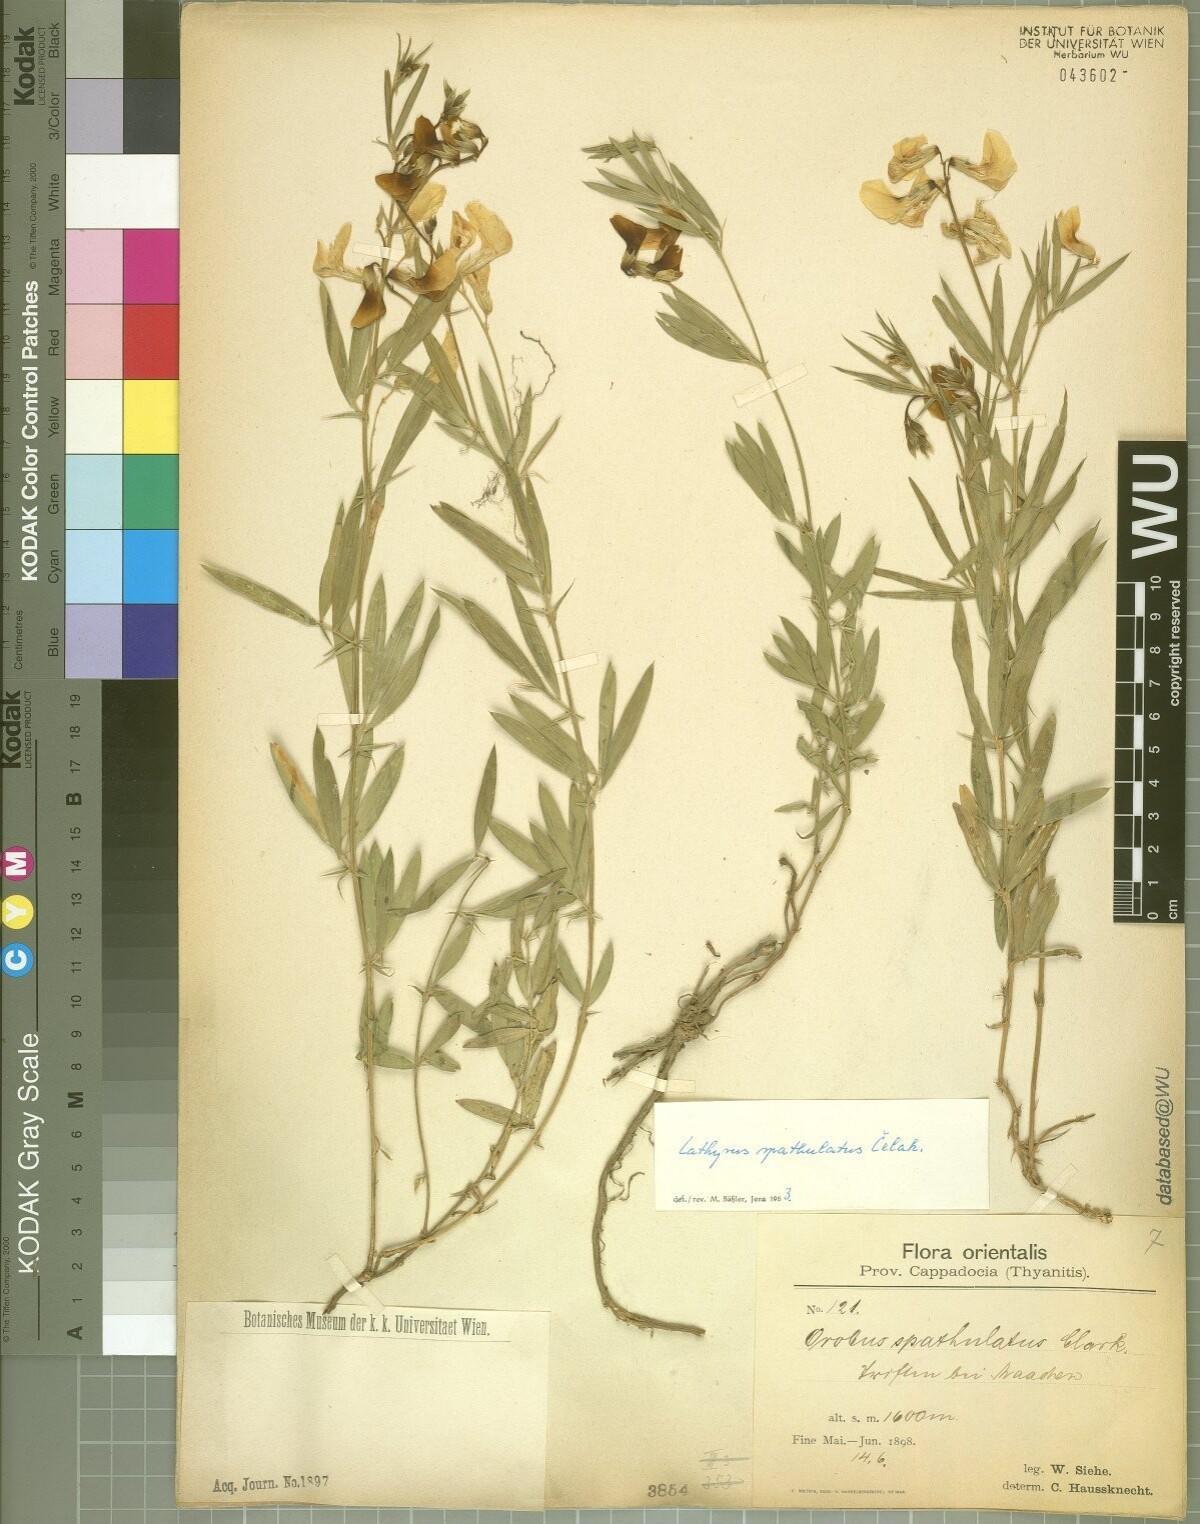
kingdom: Plantae
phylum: Tracheophyta
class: Magnoliopsida
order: Fabales
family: Fabaceae
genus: Lathyrus
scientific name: Lathyrus spathulatus
